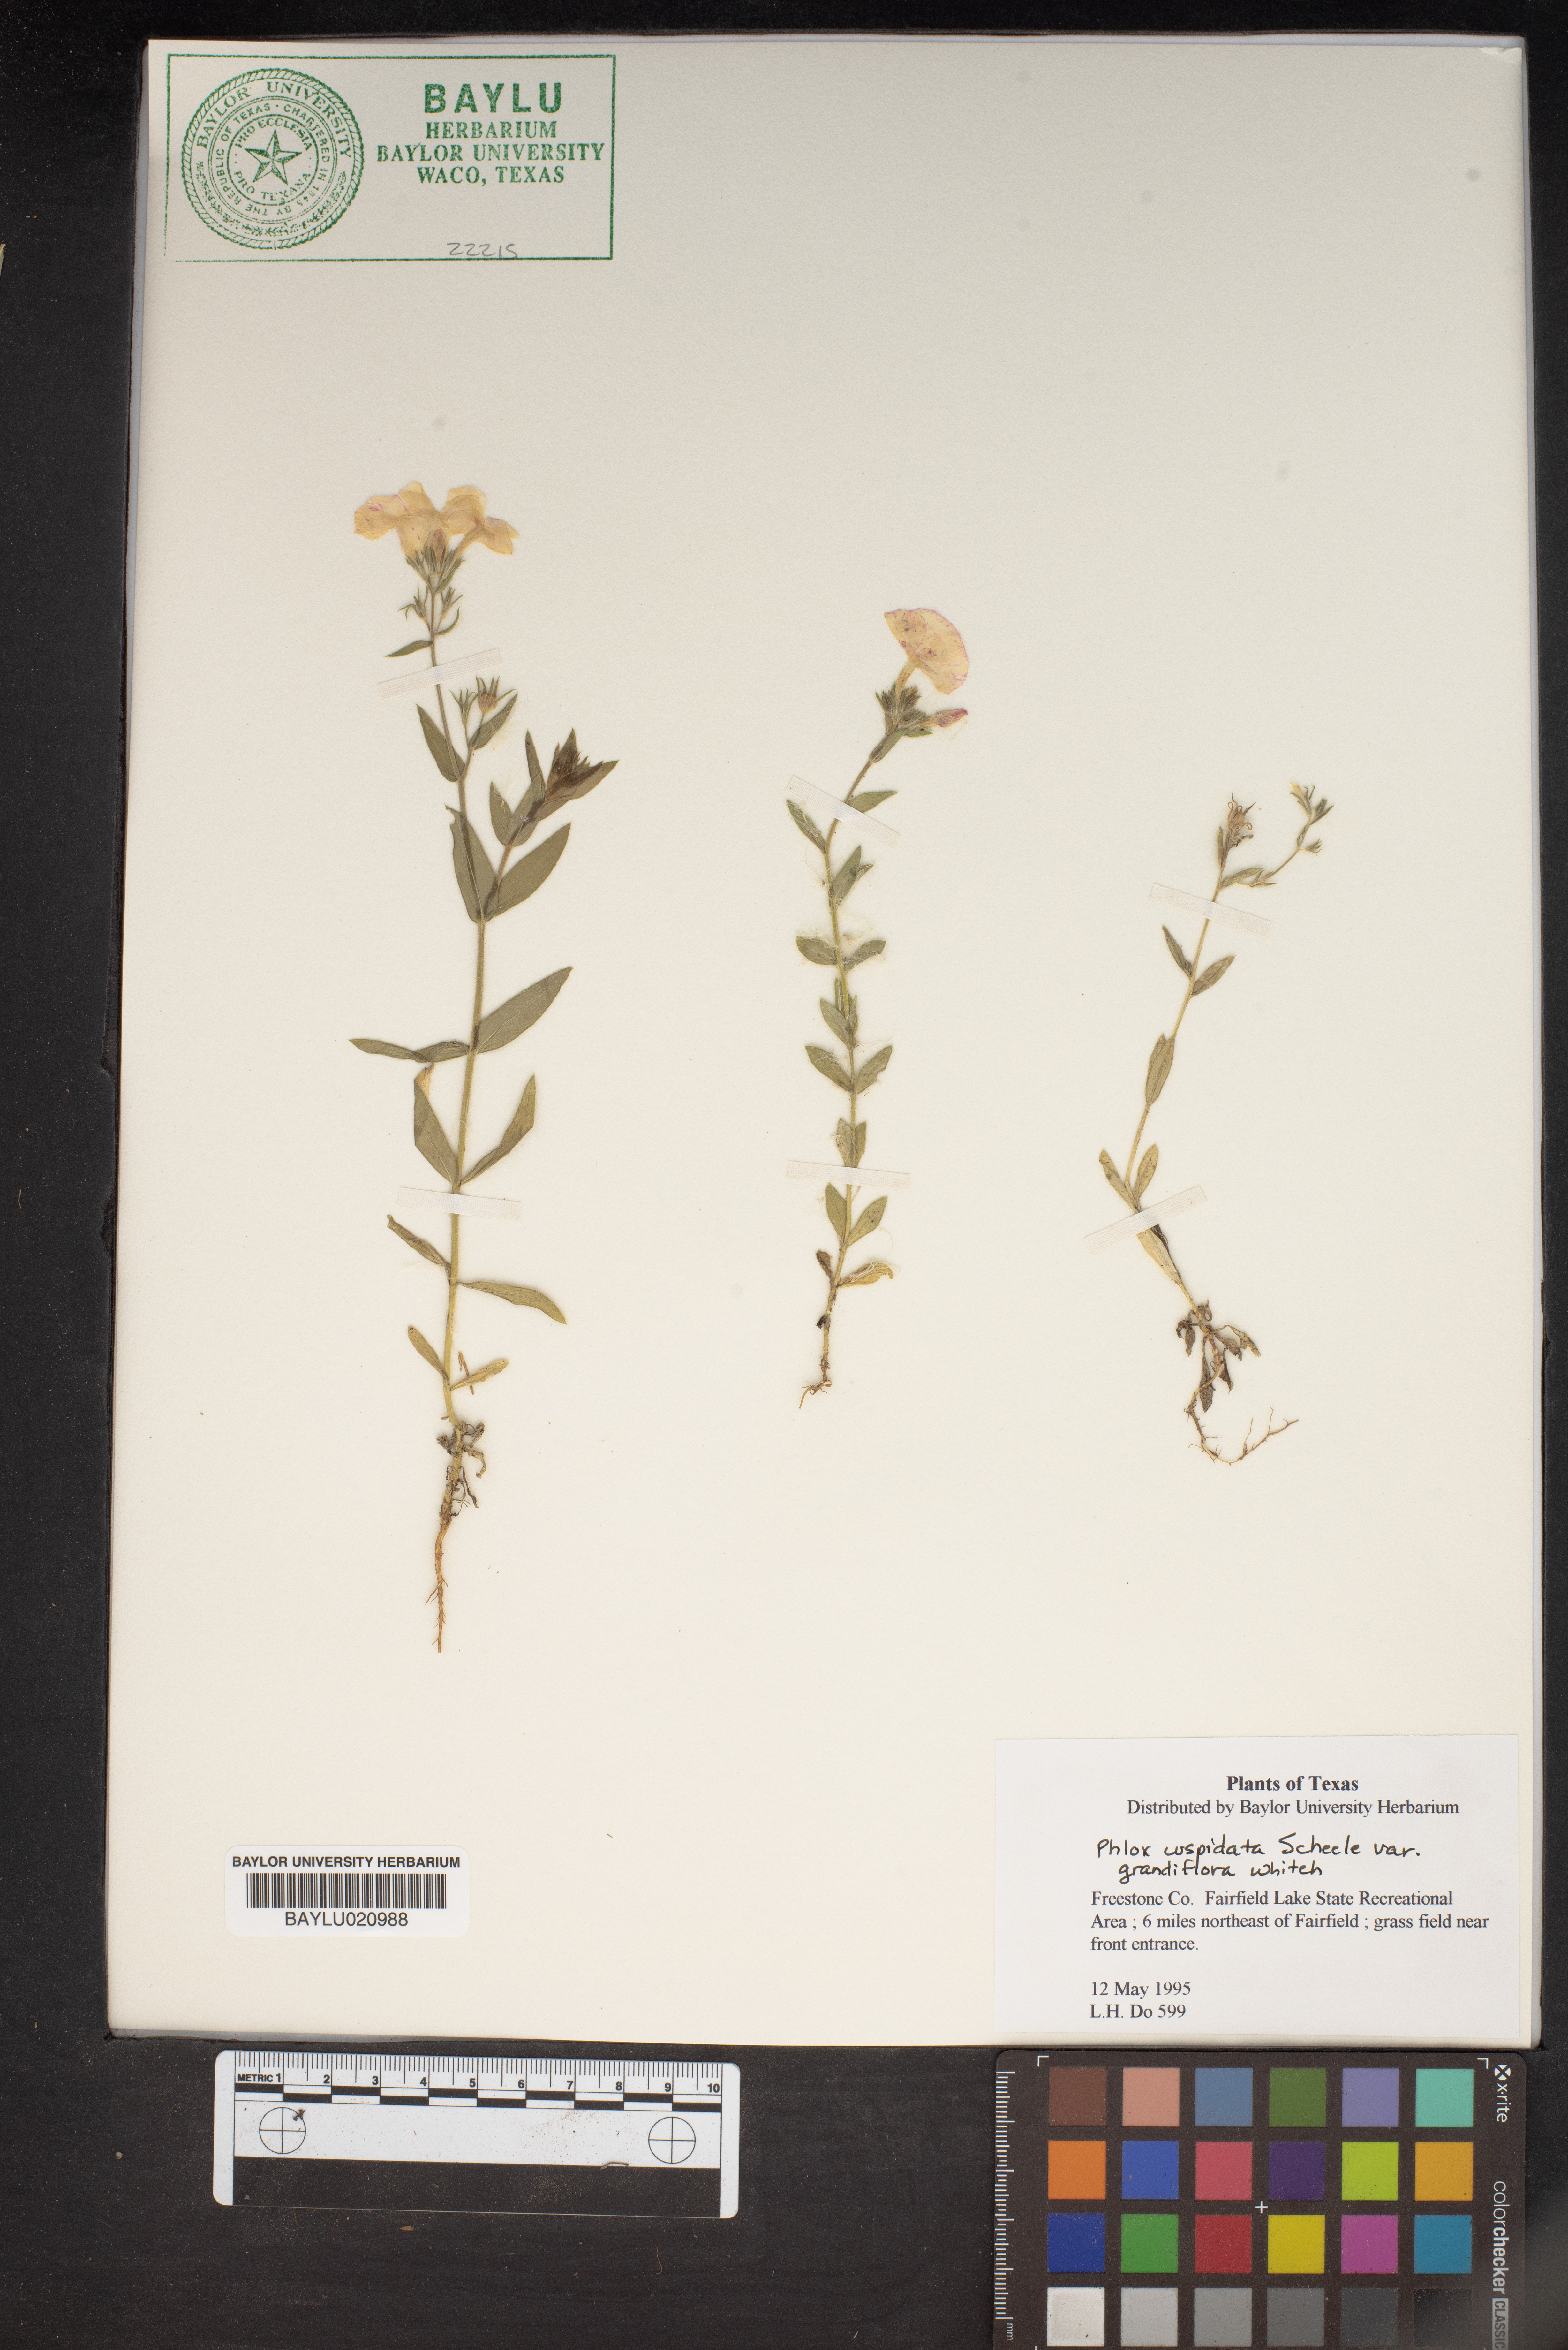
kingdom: Plantae
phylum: Tracheophyta
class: Magnoliopsida
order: Ericales
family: Polemoniaceae
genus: Phlox
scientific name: Phlox cuspidata
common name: Pointed phlox
